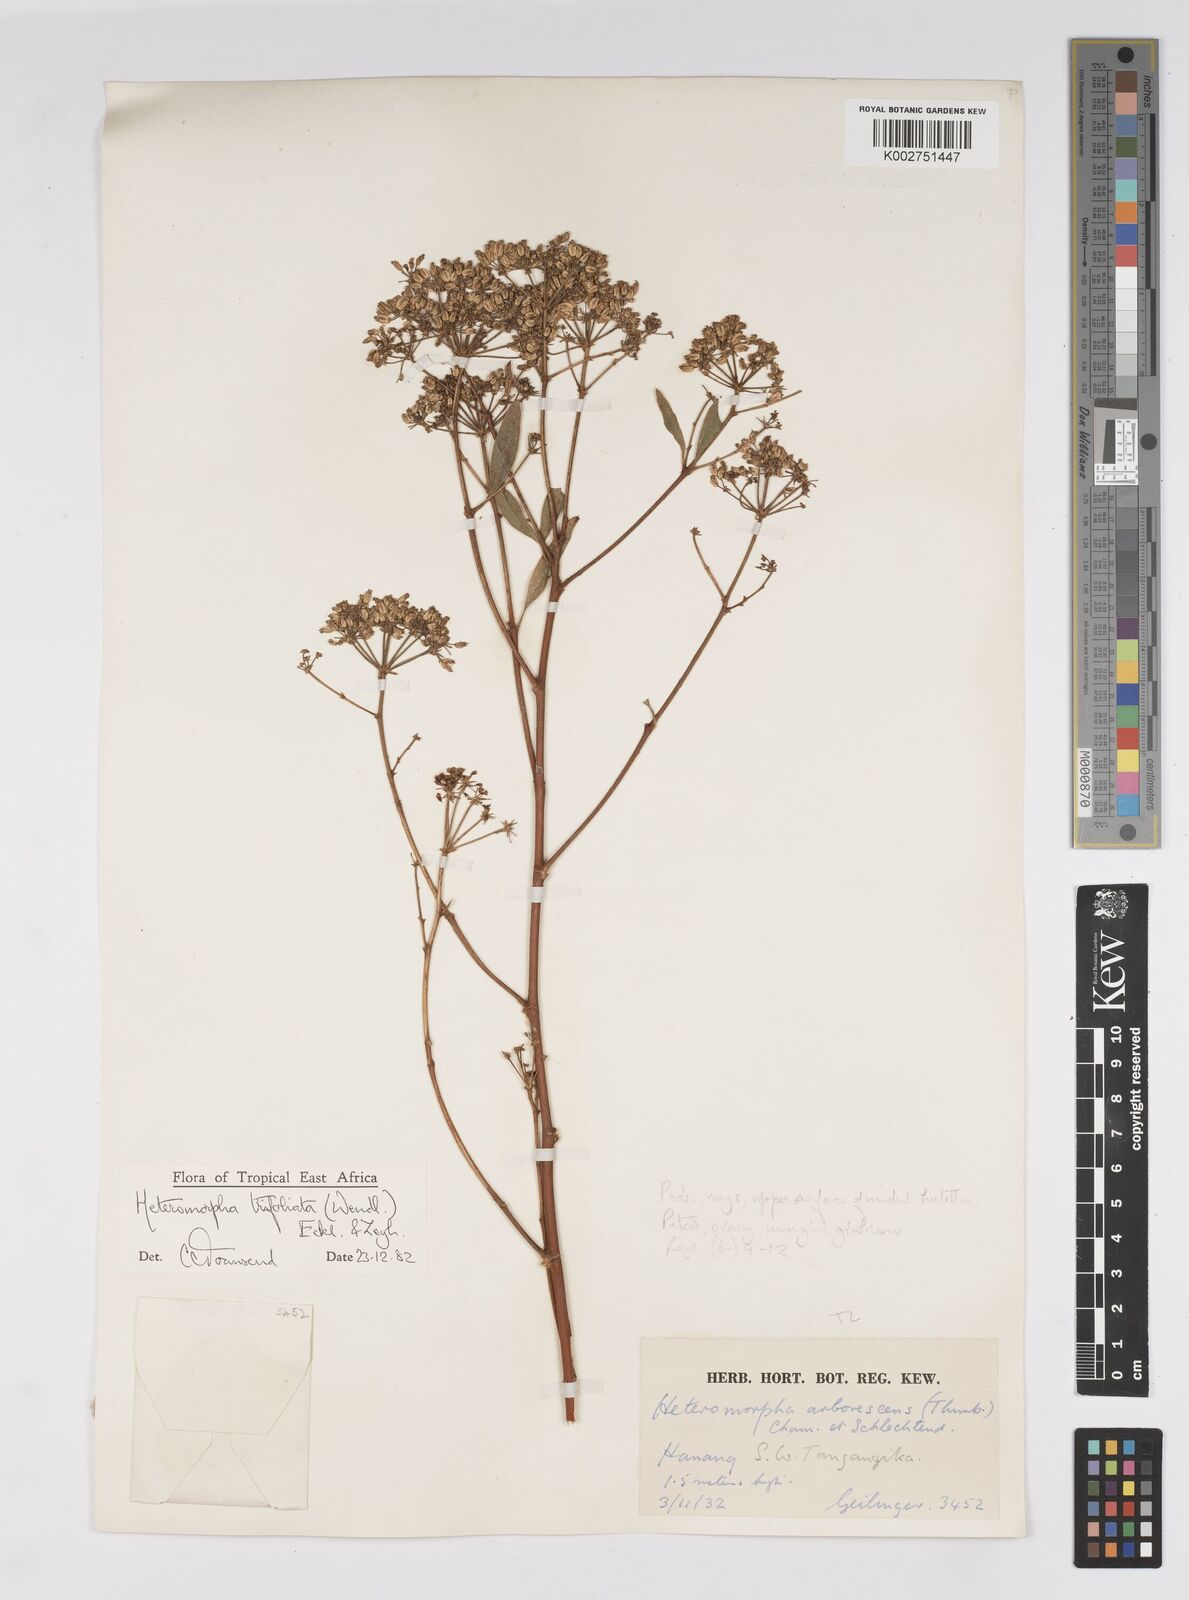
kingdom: Plantae
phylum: Tracheophyta
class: Magnoliopsida
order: Apiales
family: Apiaceae
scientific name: Apiaceae
